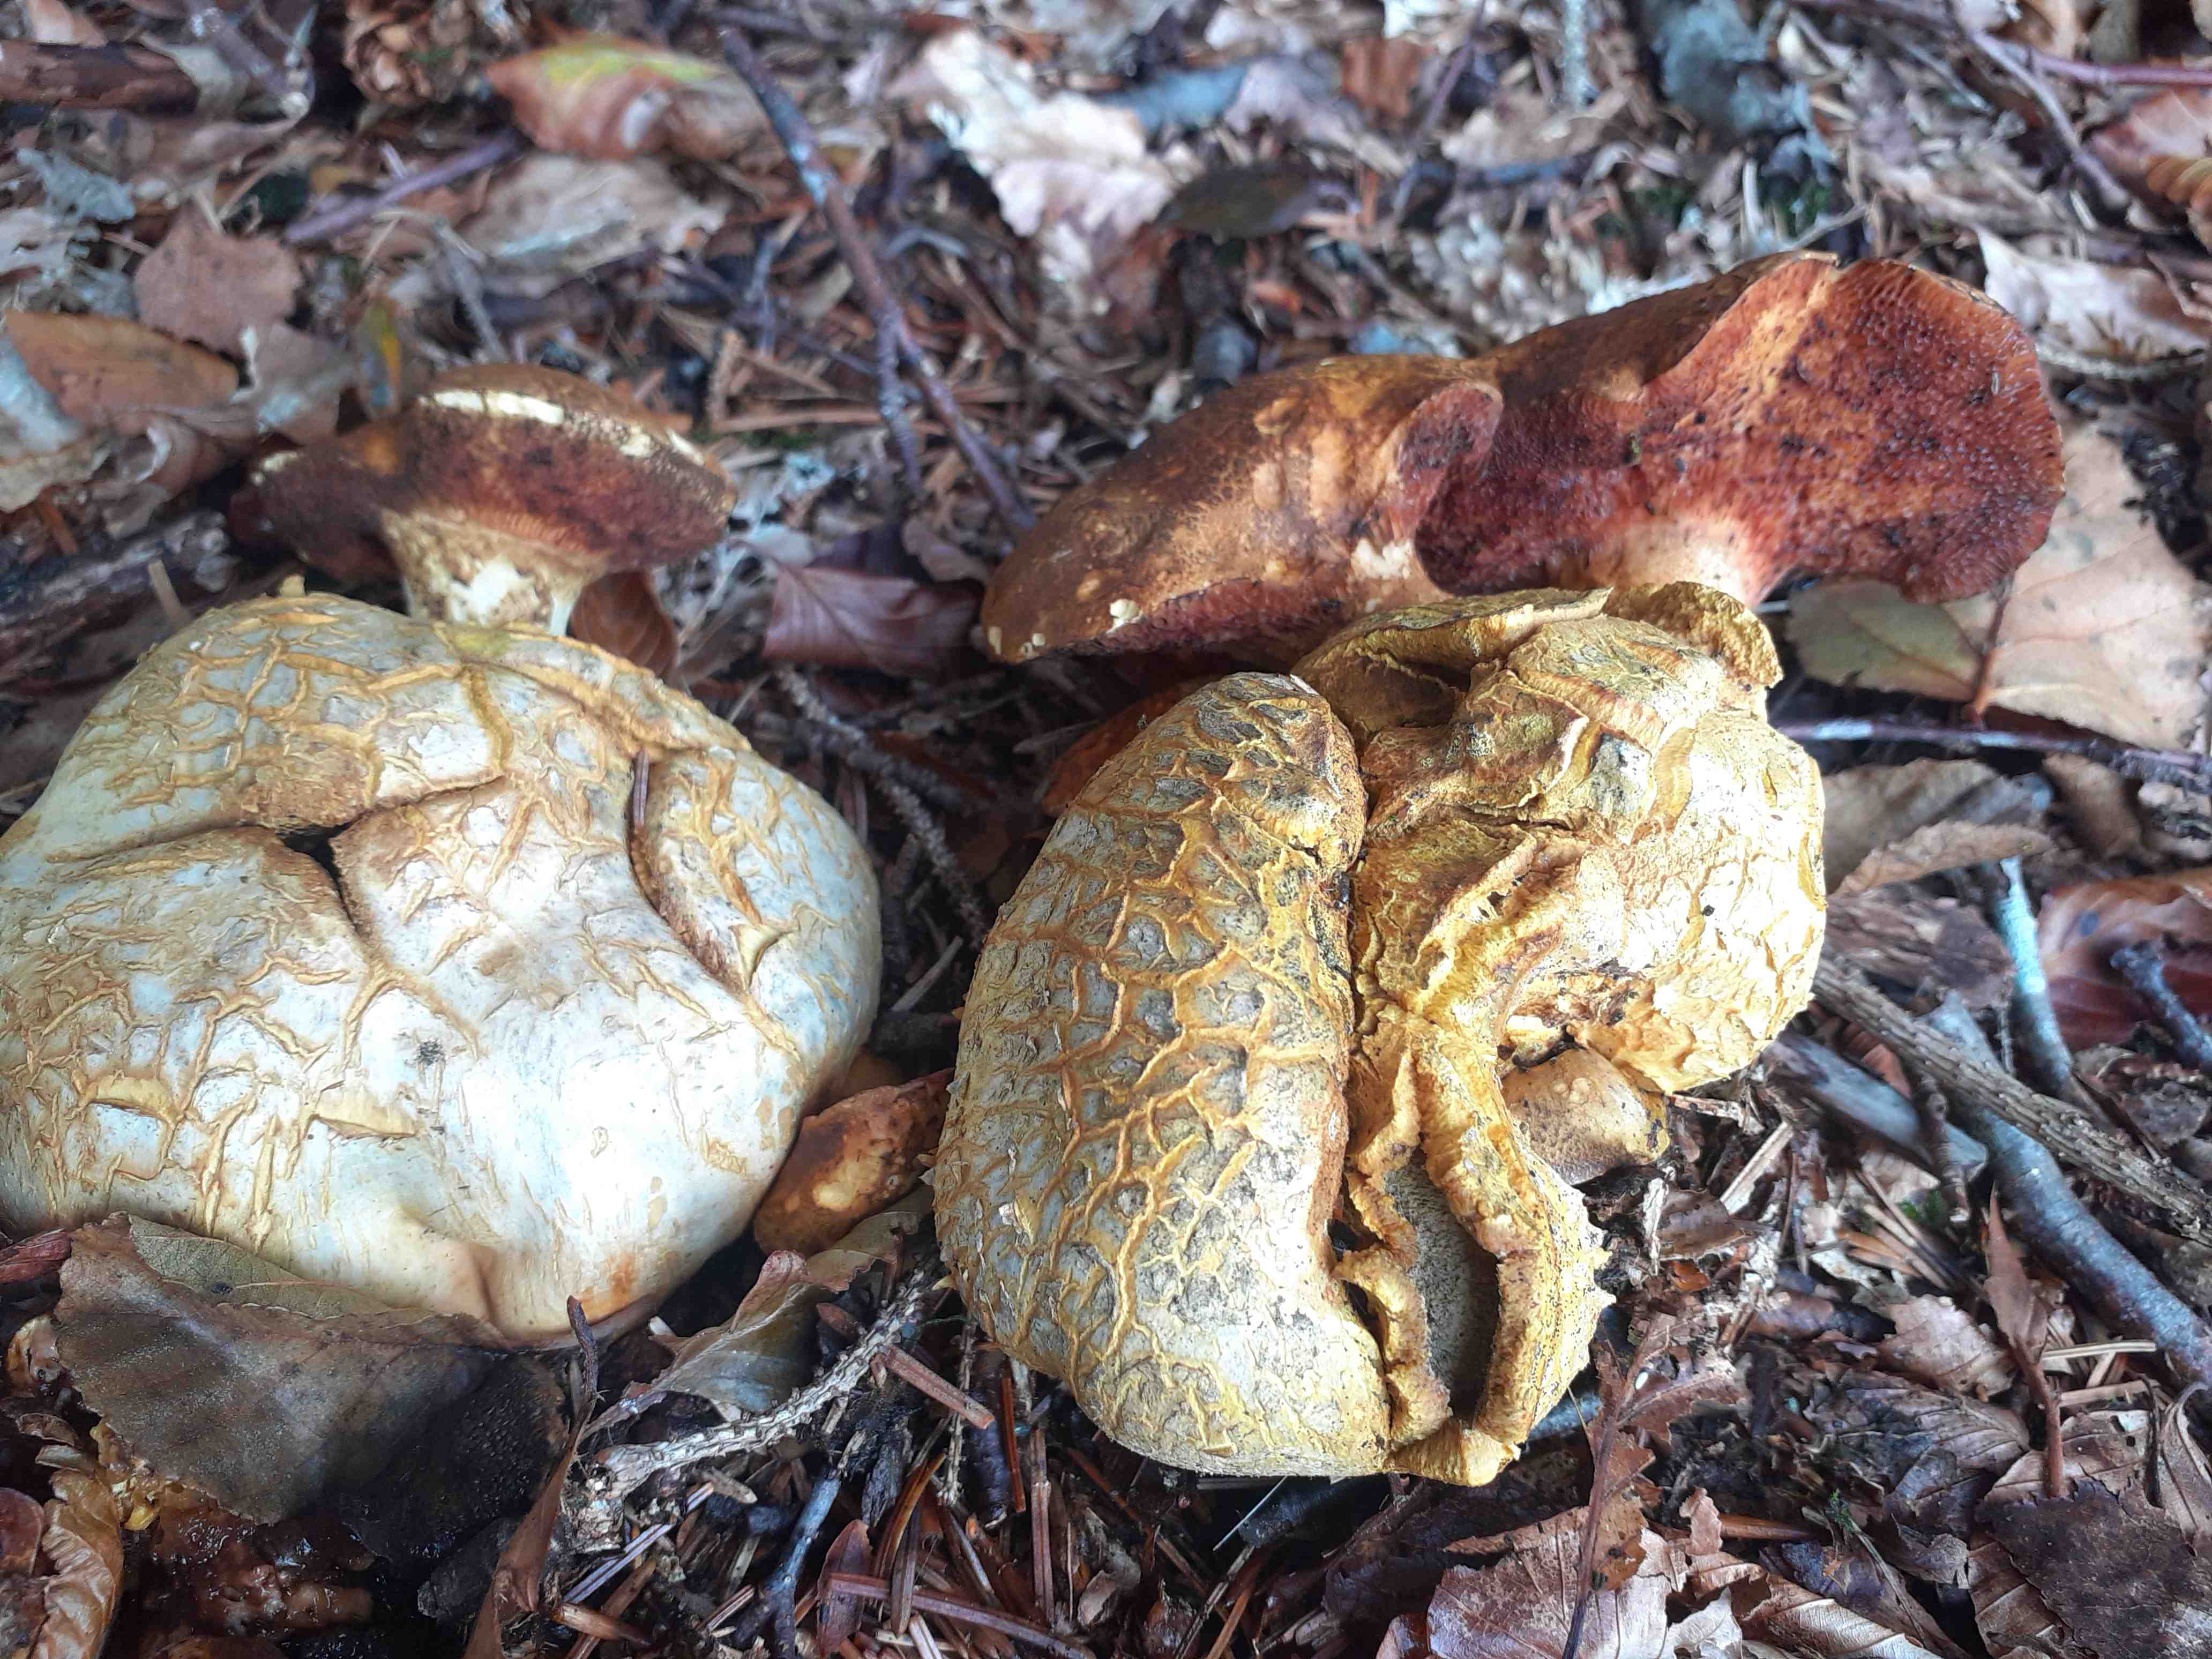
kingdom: Fungi
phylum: Basidiomycota
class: Agaricomycetes
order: Boletales
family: Boletaceae
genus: Pseudoboletus
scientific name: Pseudoboletus parasiticus
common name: snyltende rørhat
